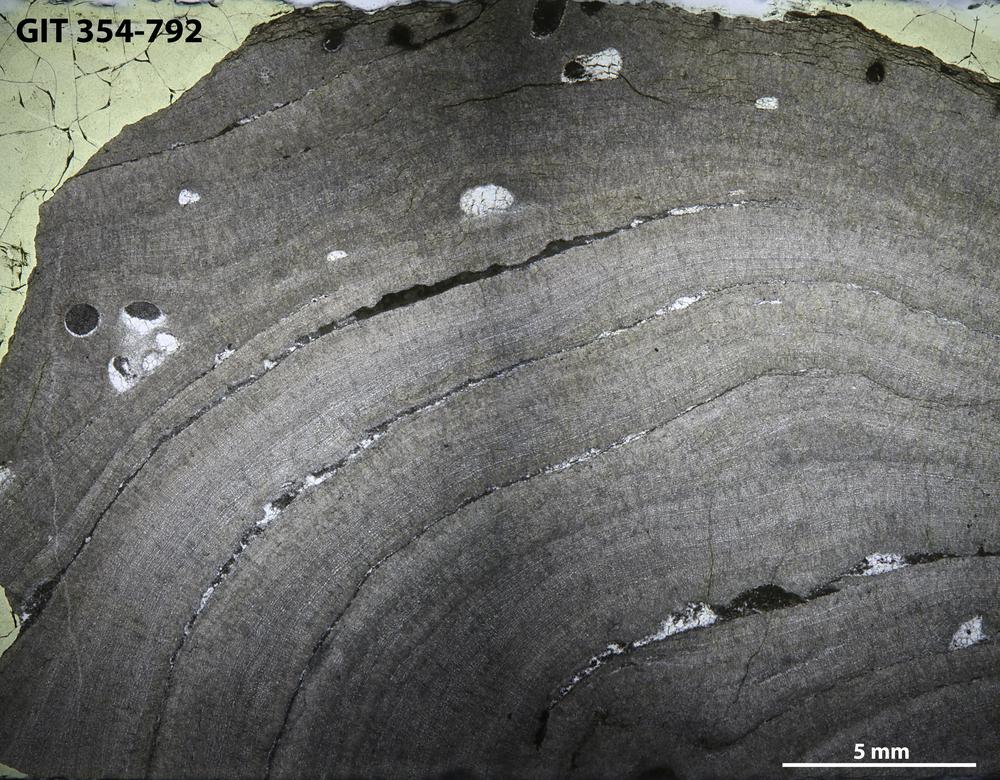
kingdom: Animalia
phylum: Porifera
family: Densastromatidae
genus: Densastroma
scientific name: Densastroma
